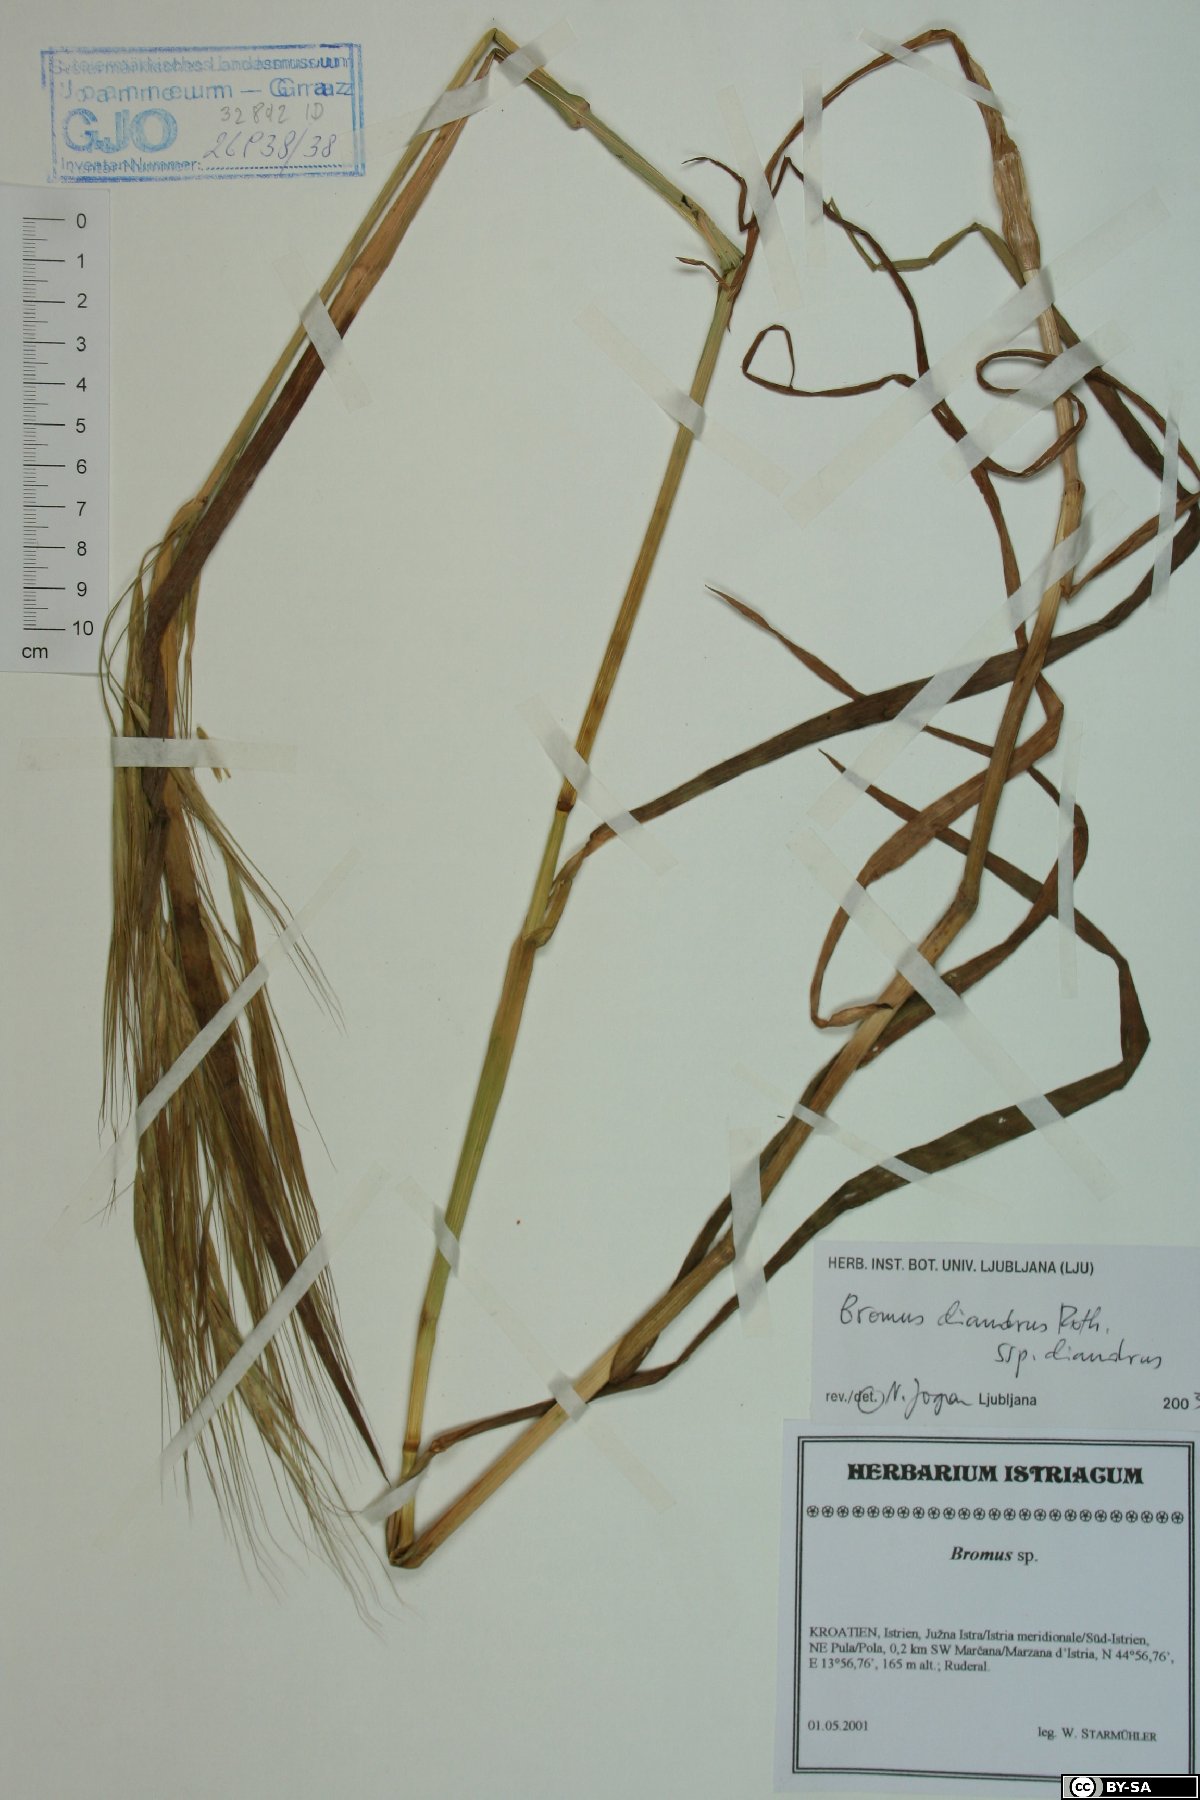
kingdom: Plantae
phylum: Tracheophyta
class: Liliopsida
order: Poales
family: Poaceae
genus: Bromus
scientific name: Bromus diandrus
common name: Ripgut brome
